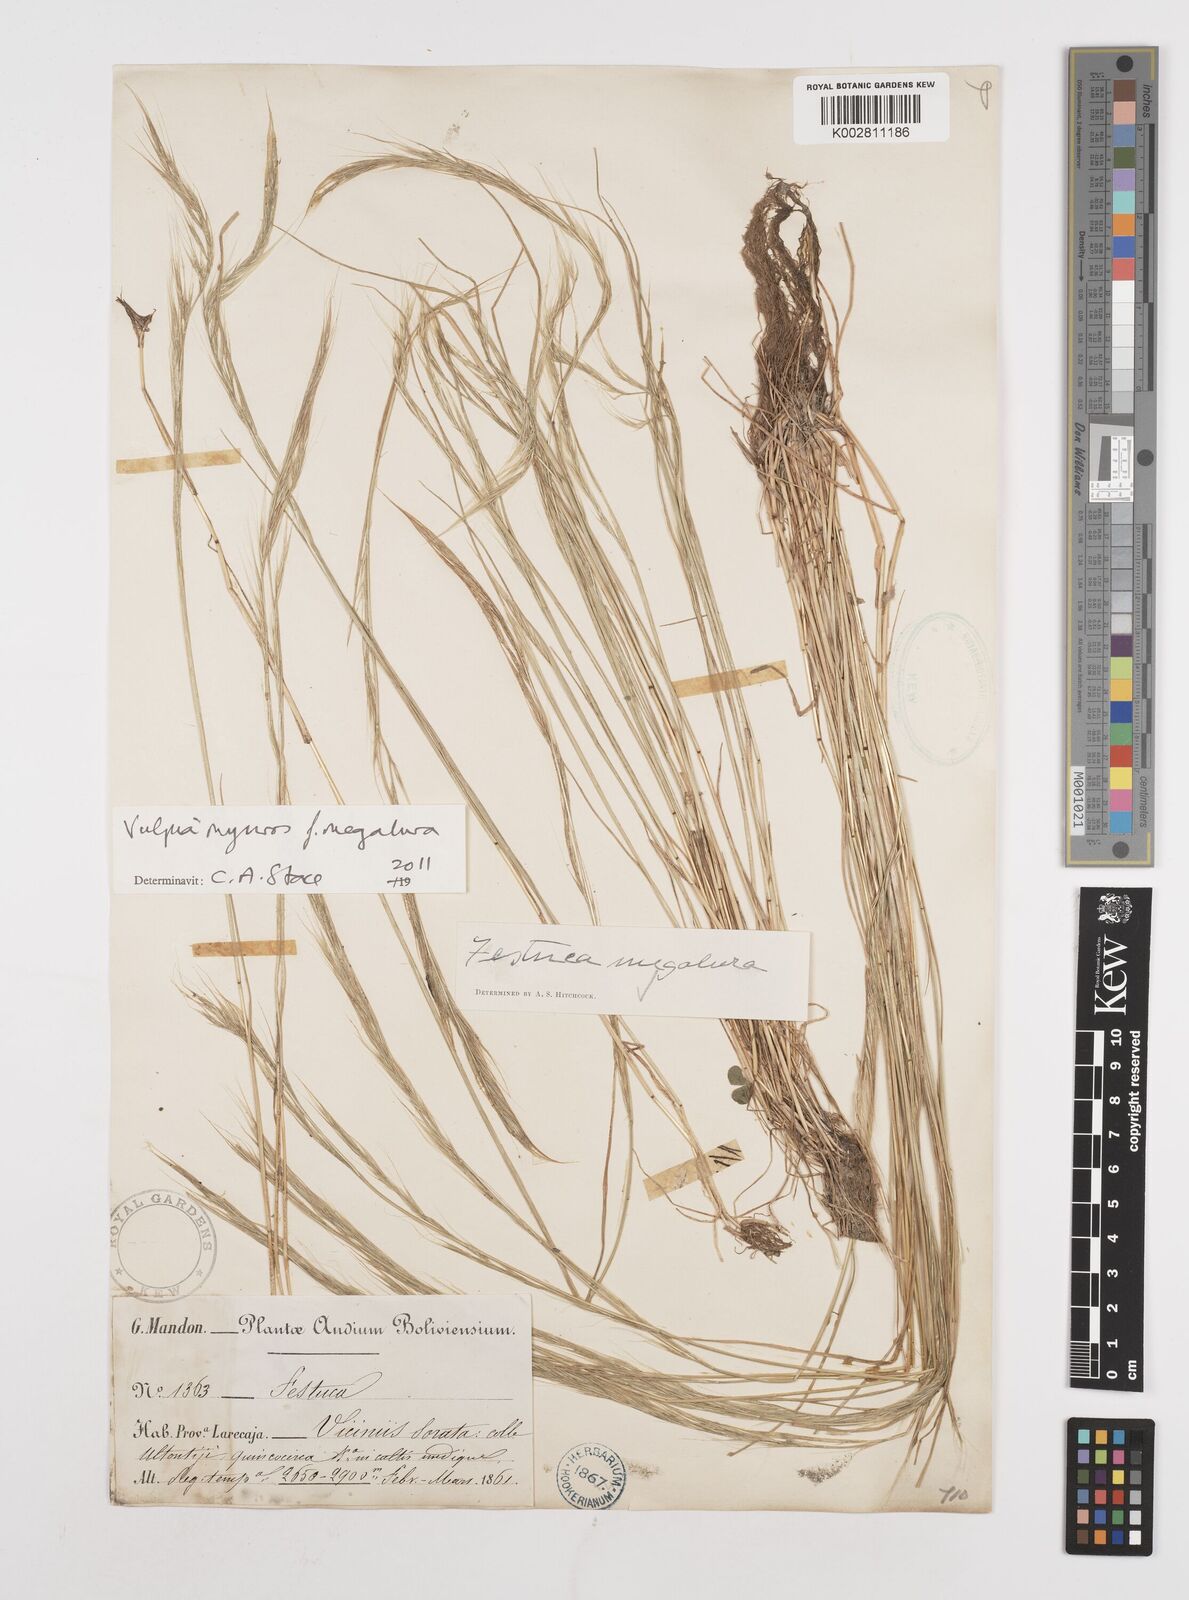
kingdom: Plantae
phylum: Tracheophyta
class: Liliopsida
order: Poales
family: Poaceae
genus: Festuca
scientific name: Festuca myuros
